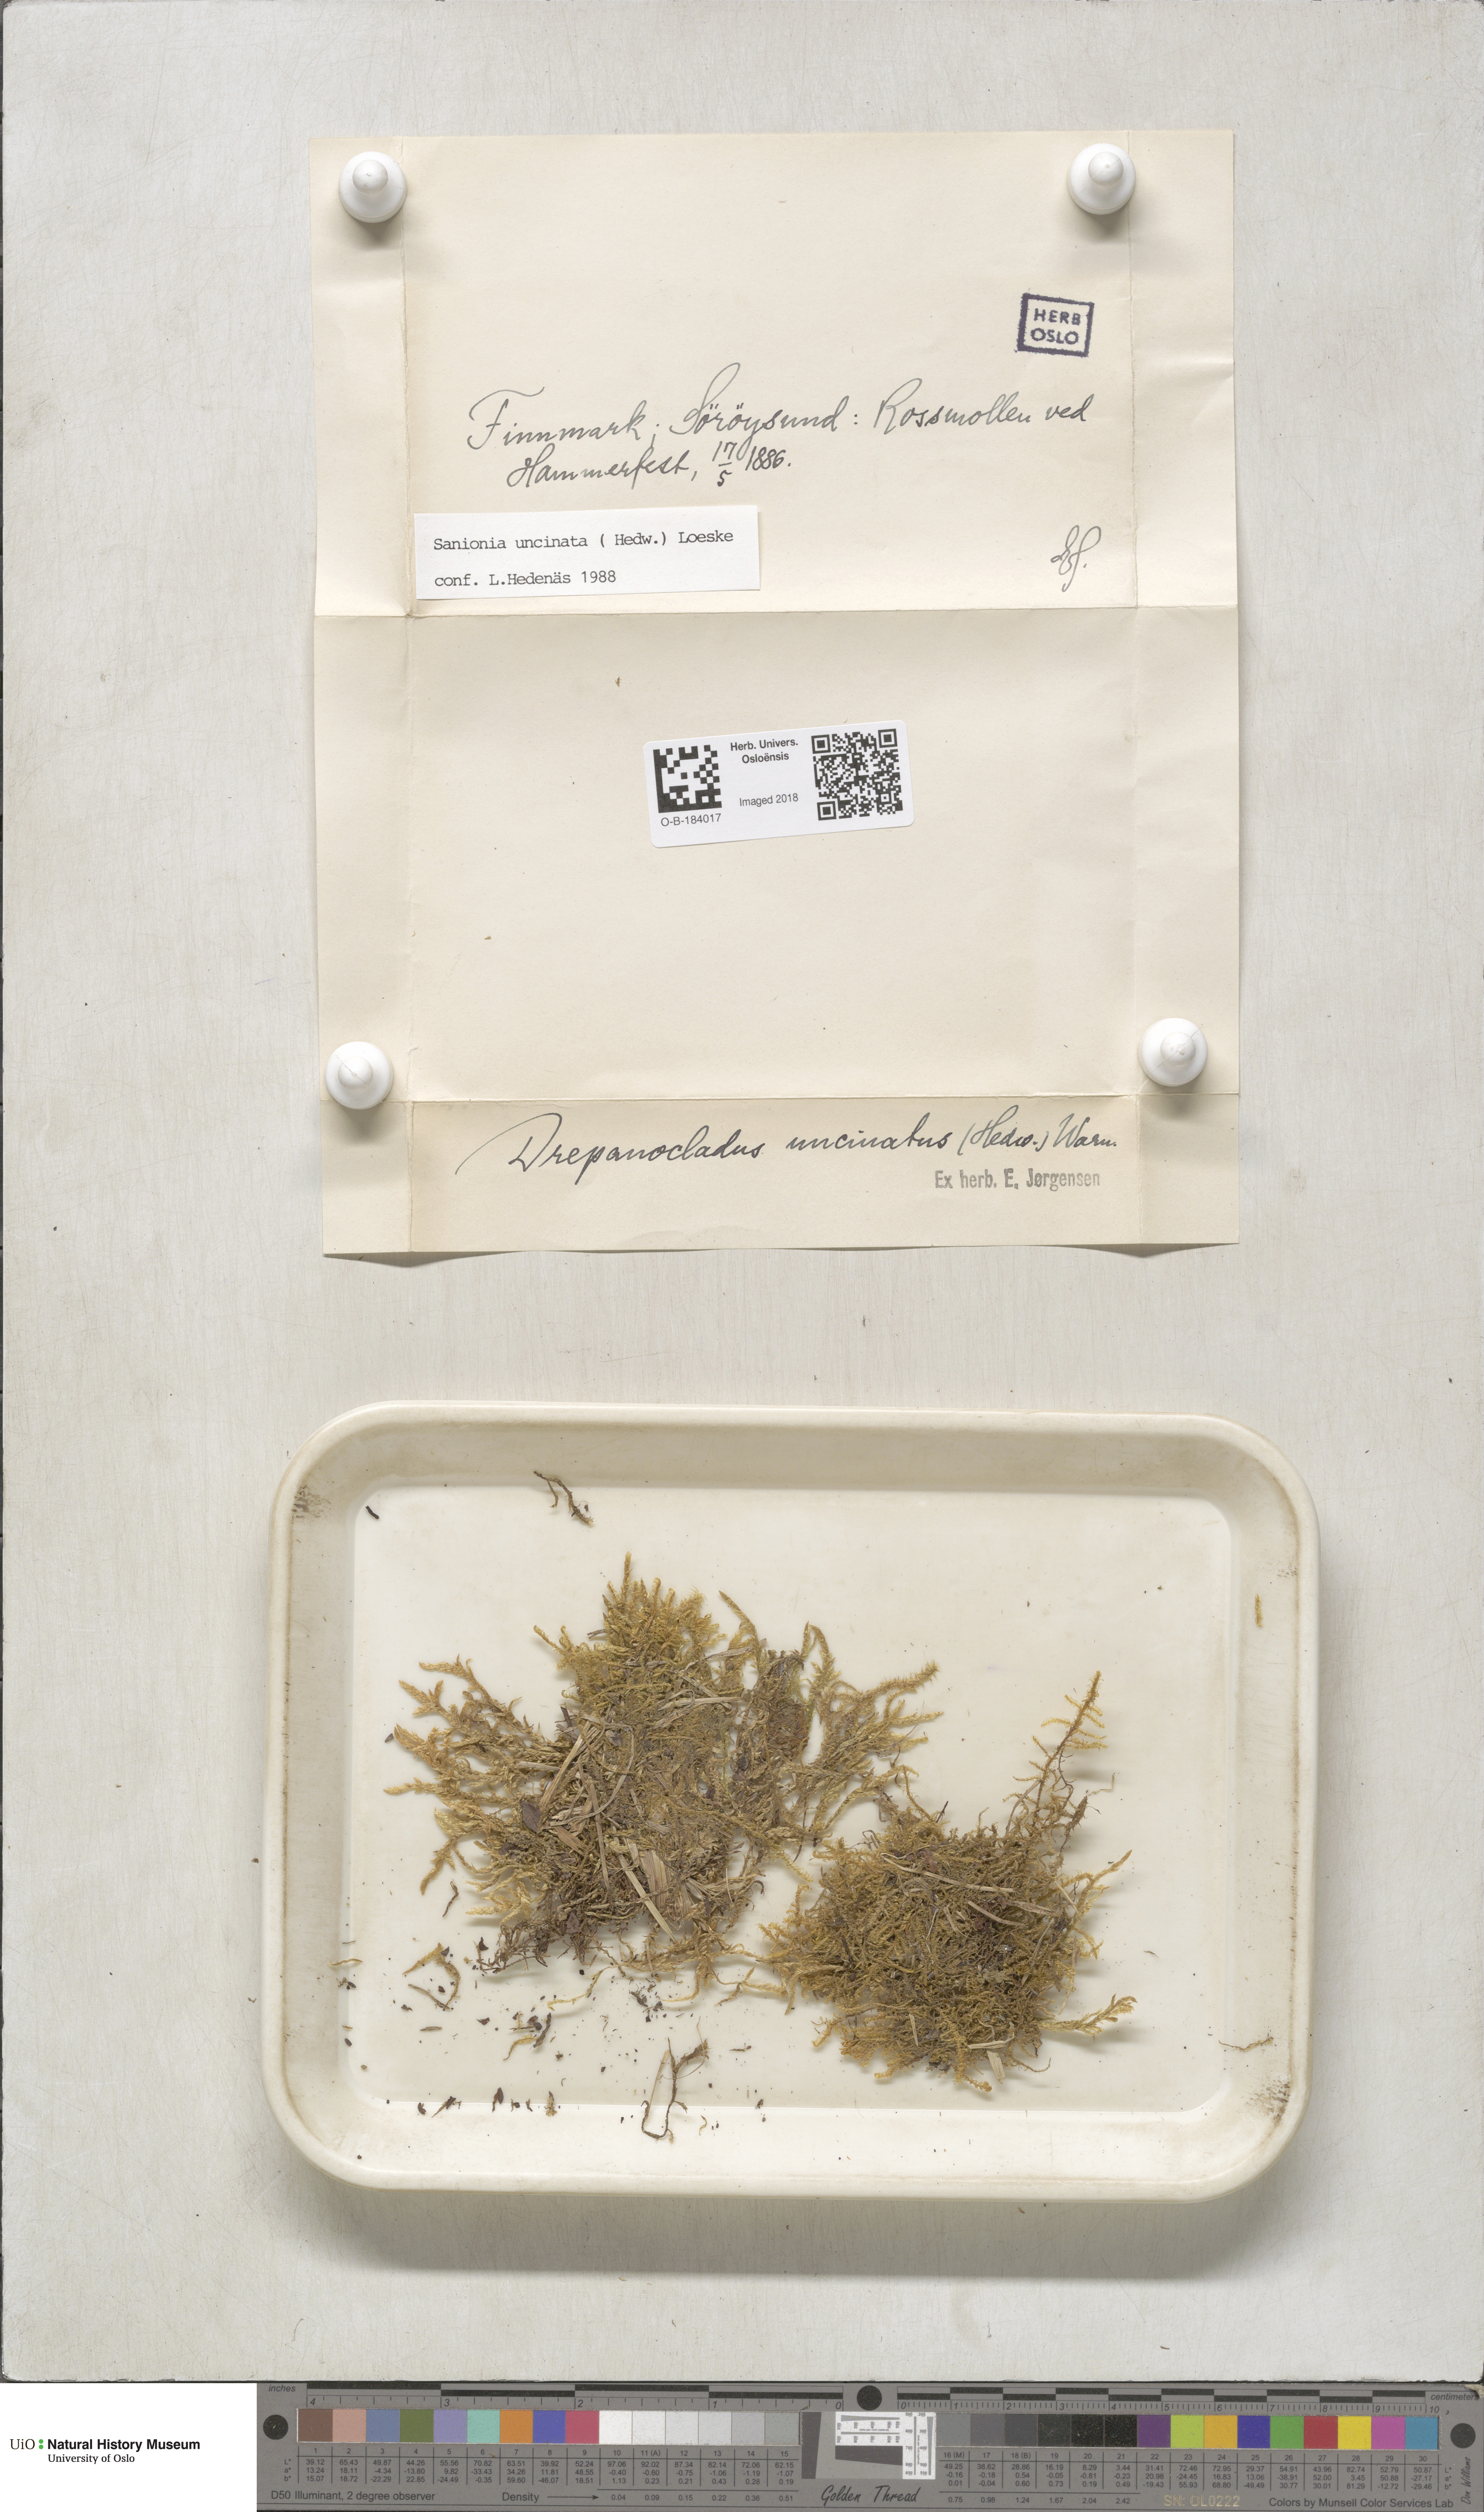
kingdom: Plantae
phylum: Bryophyta
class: Bryopsida
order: Hypnales
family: Scorpidiaceae
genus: Sanionia
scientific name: Sanionia uncinata
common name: Sickle moss
